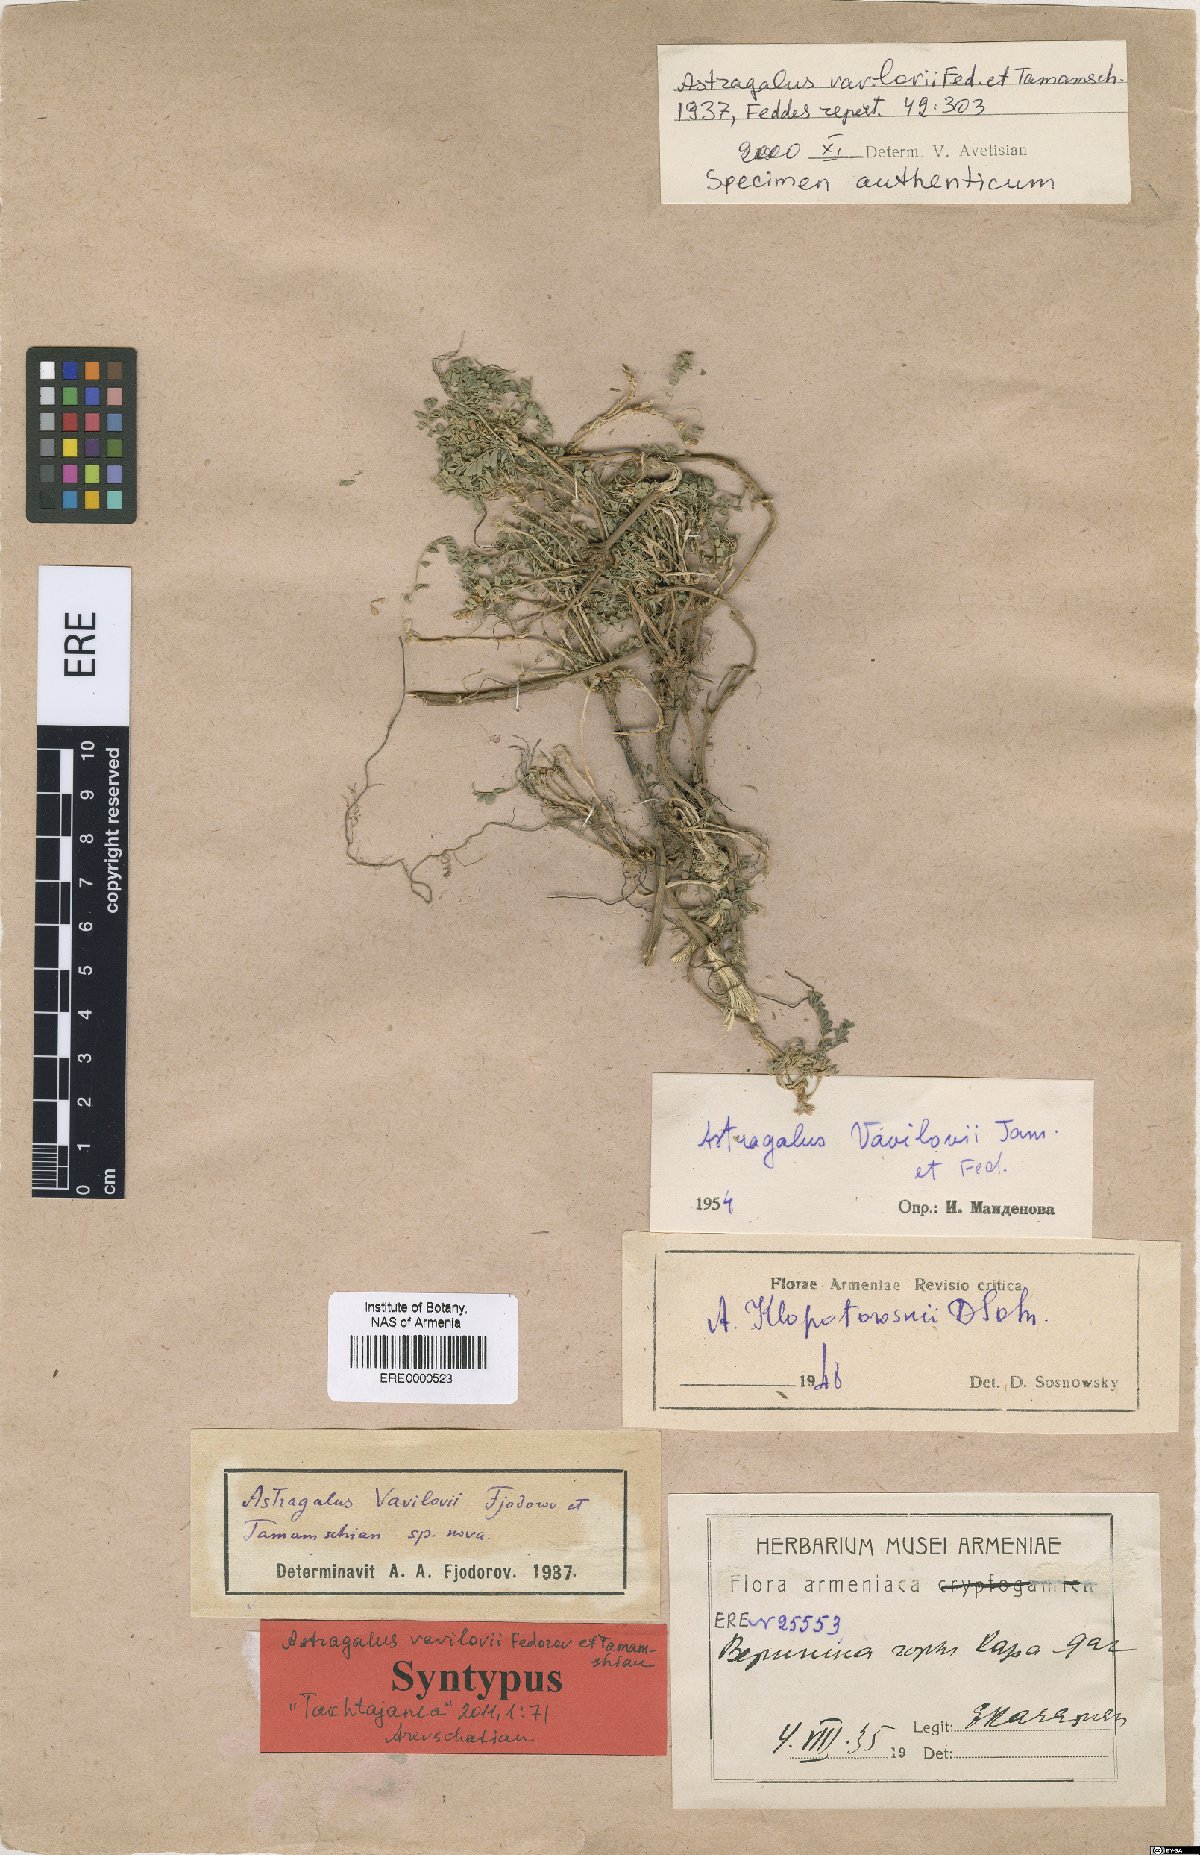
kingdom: Plantae
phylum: Tracheophyta
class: Magnoliopsida
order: Fabales
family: Fabaceae
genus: Astragalus
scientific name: Astragalus vavilovii
